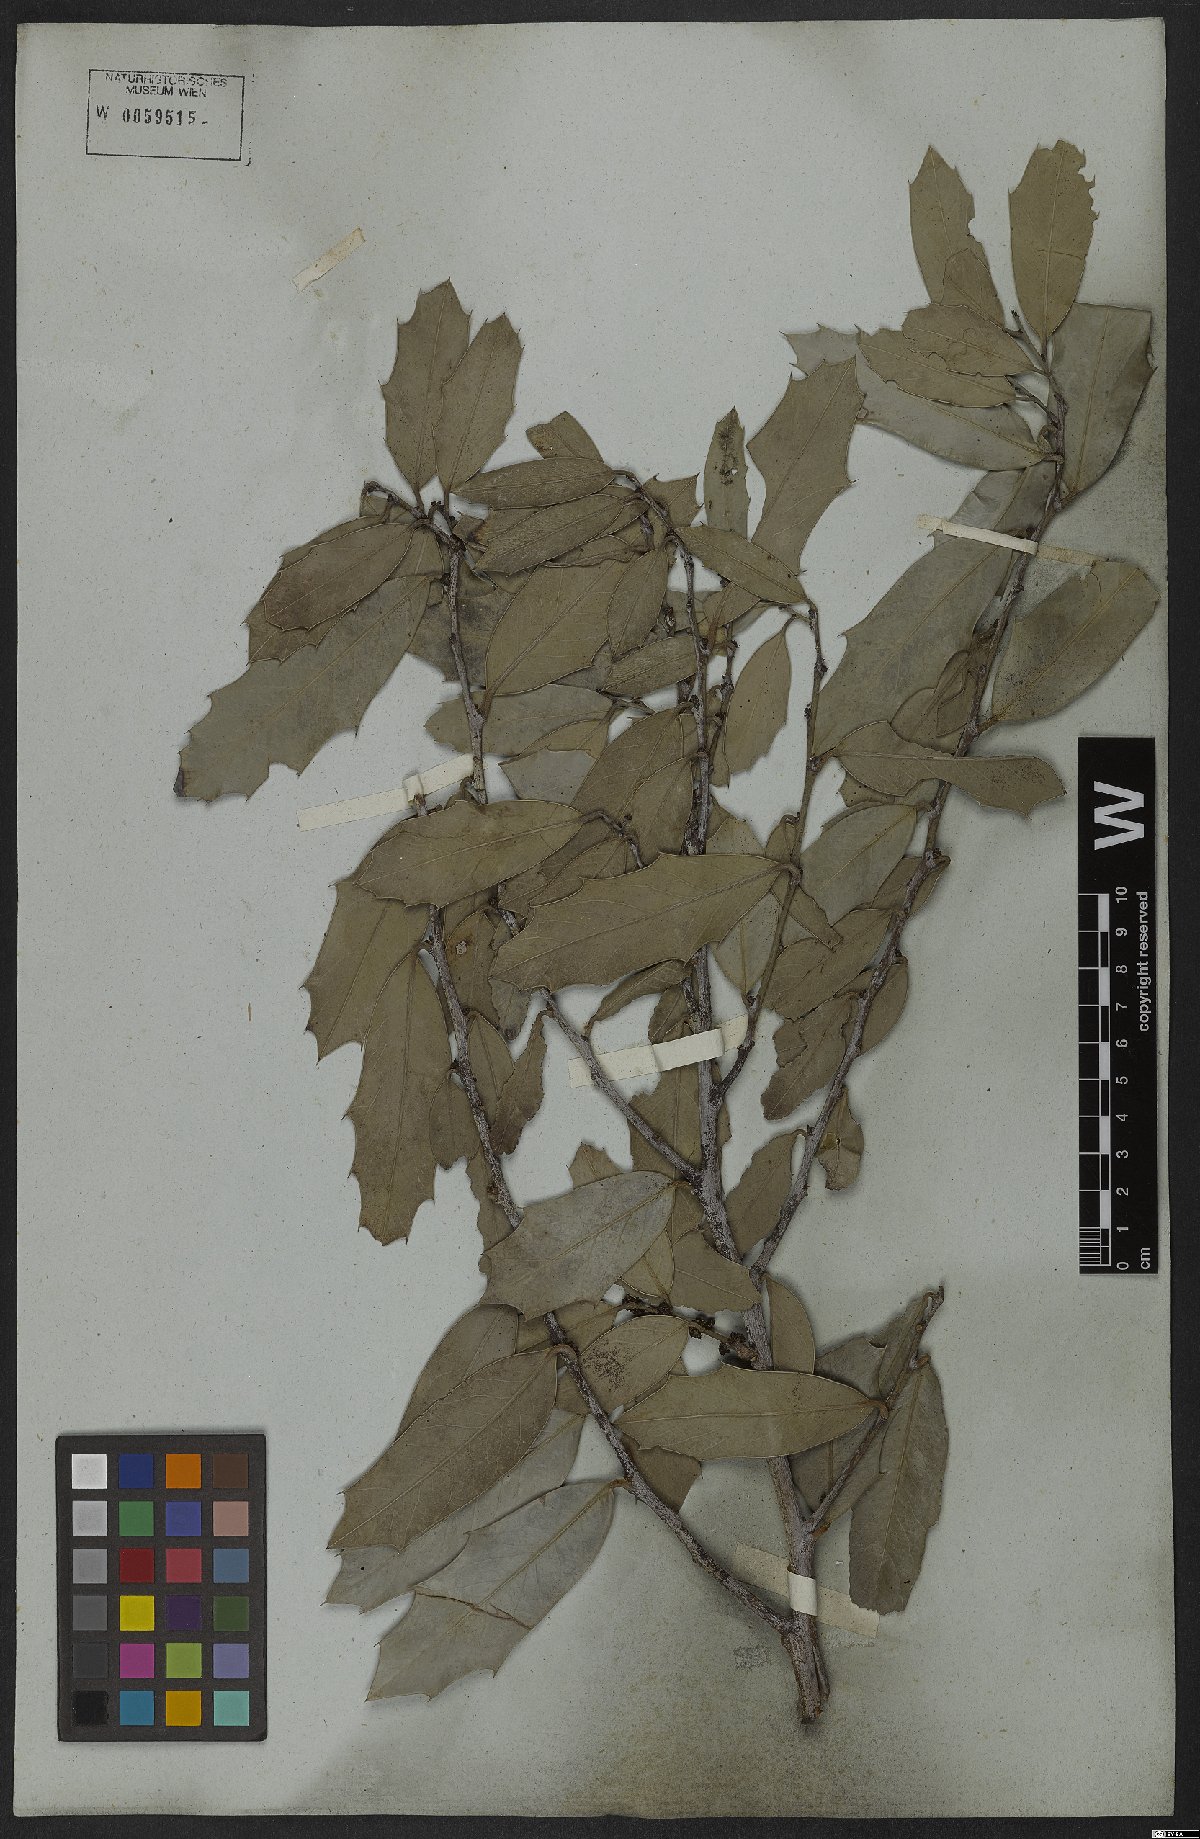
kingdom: Plantae
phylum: Tracheophyta
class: Magnoliopsida
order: Celastrales
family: Celastraceae
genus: Monteverdia
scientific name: Monteverdia cassineformis
